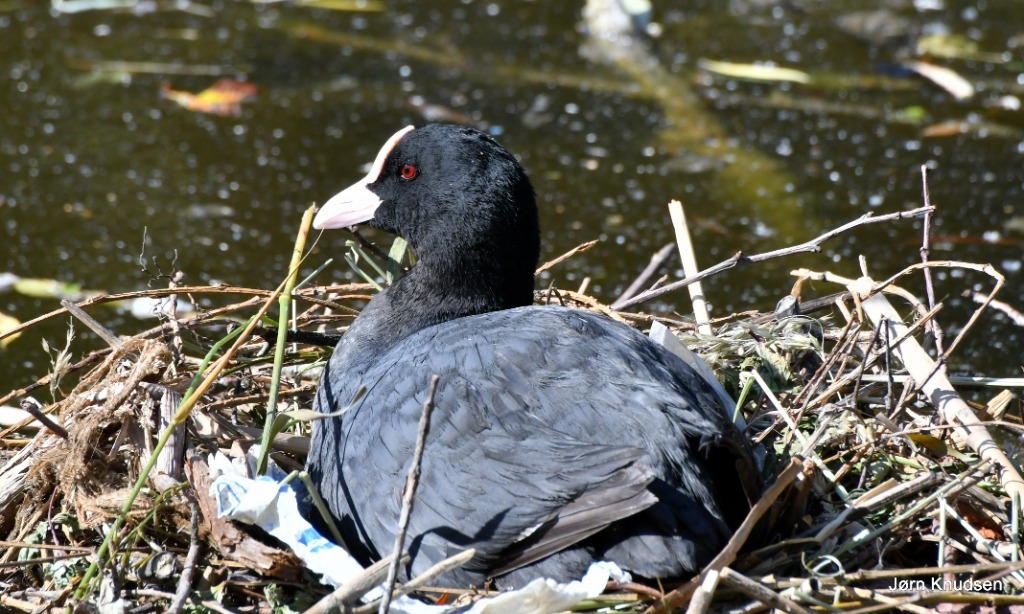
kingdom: Animalia
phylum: Chordata
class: Aves
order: Gruiformes
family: Rallidae
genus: Fulica
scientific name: Fulica atra
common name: Blishøne
